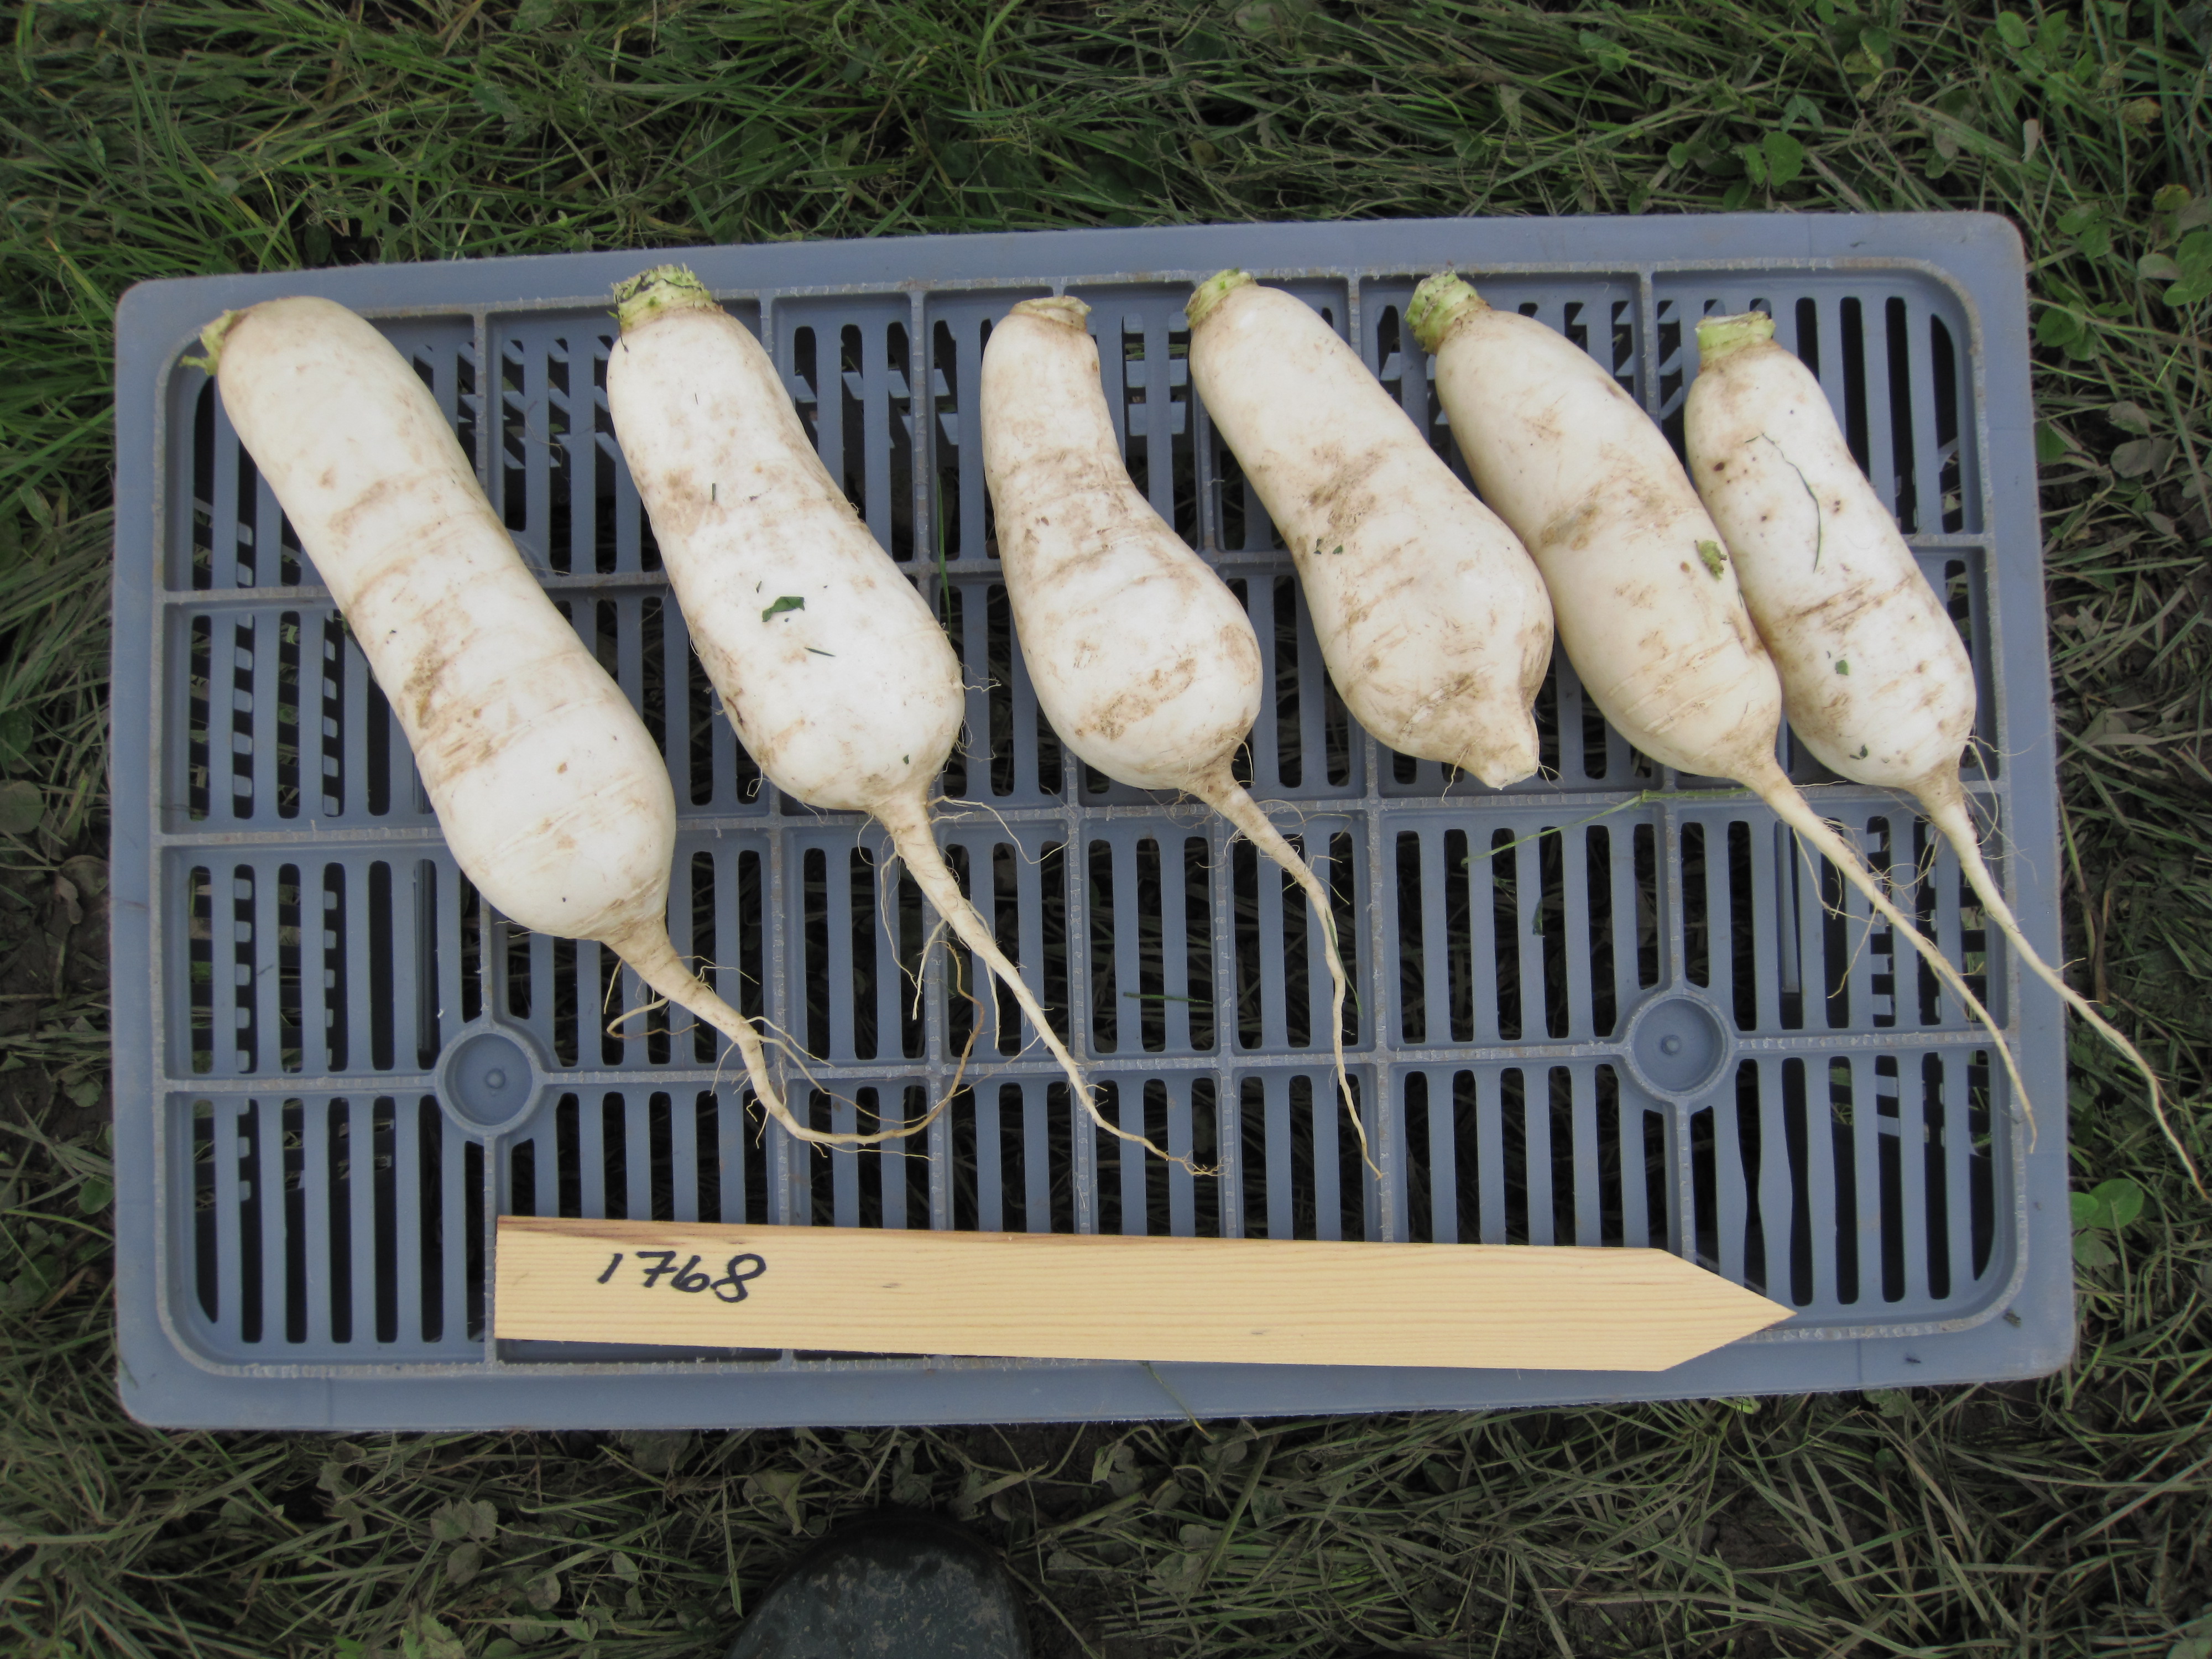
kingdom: Plantae
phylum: Tracheophyta
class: Magnoliopsida
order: Brassicales
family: Brassicaceae
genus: Brassica
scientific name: Brassica rapa
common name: Field mustard
